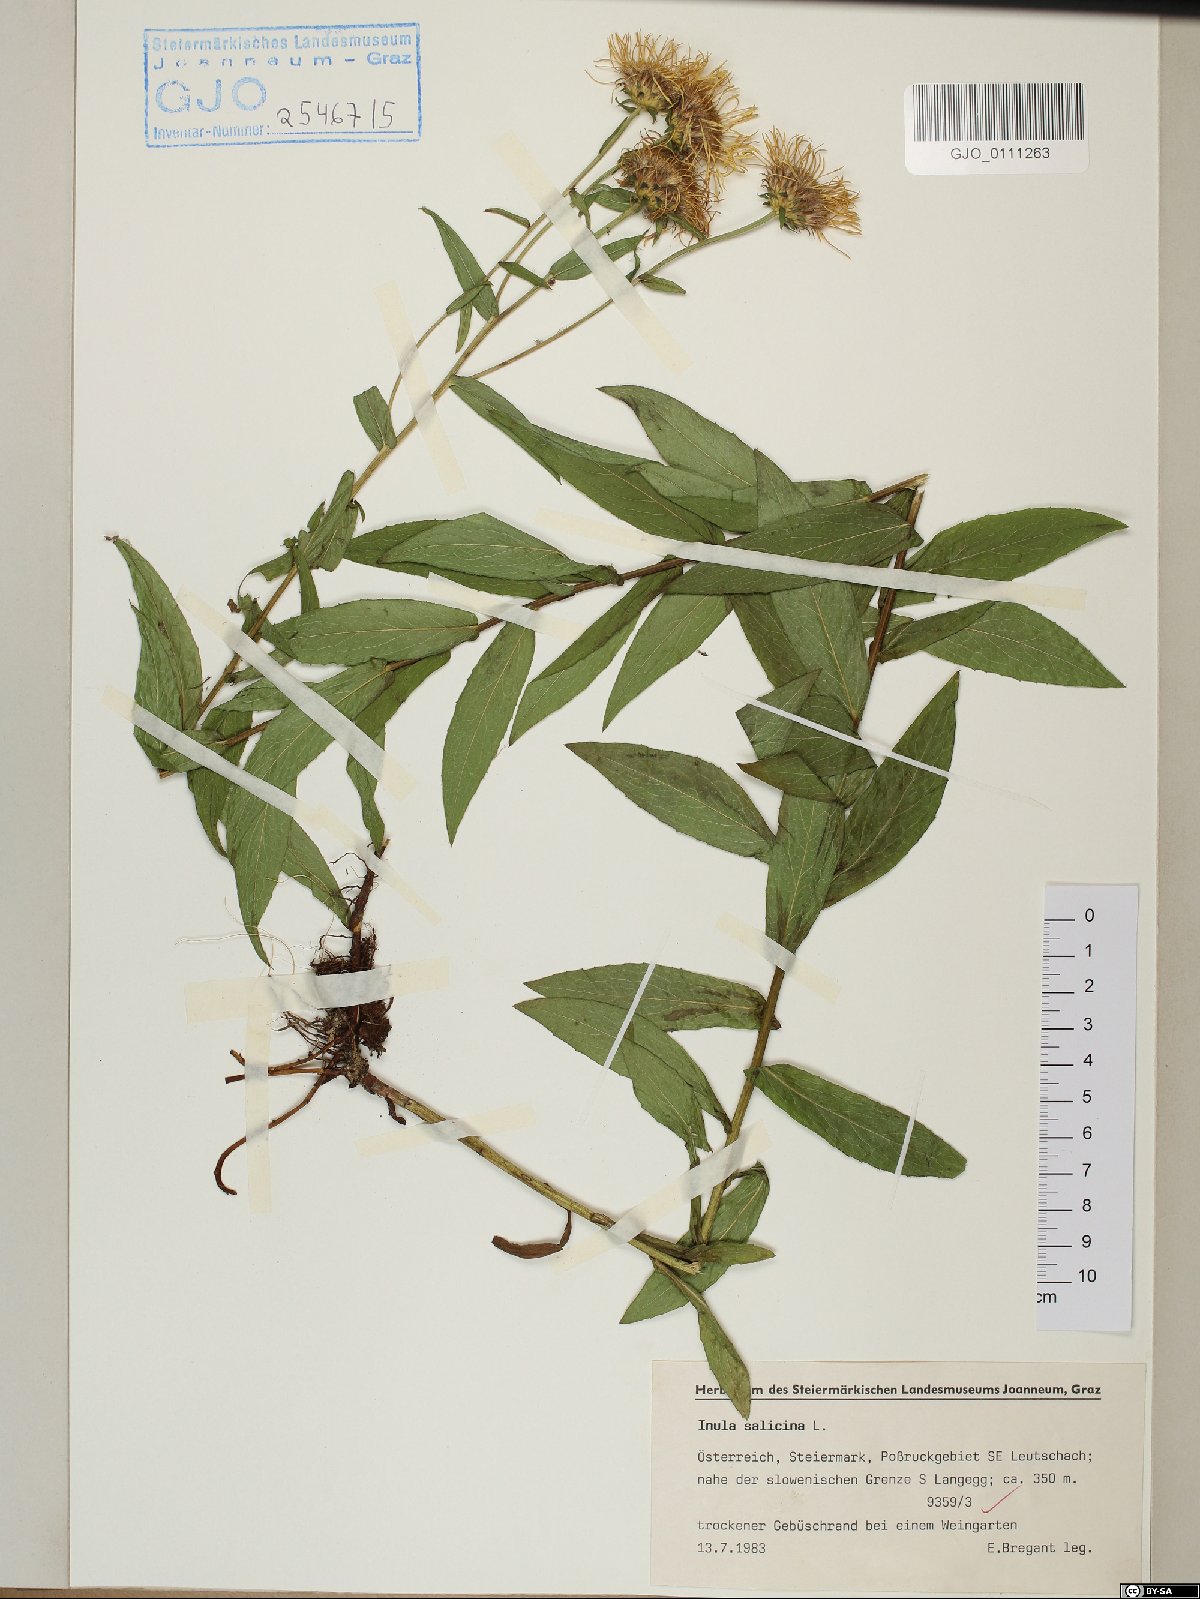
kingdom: Plantae
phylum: Tracheophyta
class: Magnoliopsida
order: Asterales
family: Asteraceae
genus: Pentanema
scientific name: Pentanema salicinum
